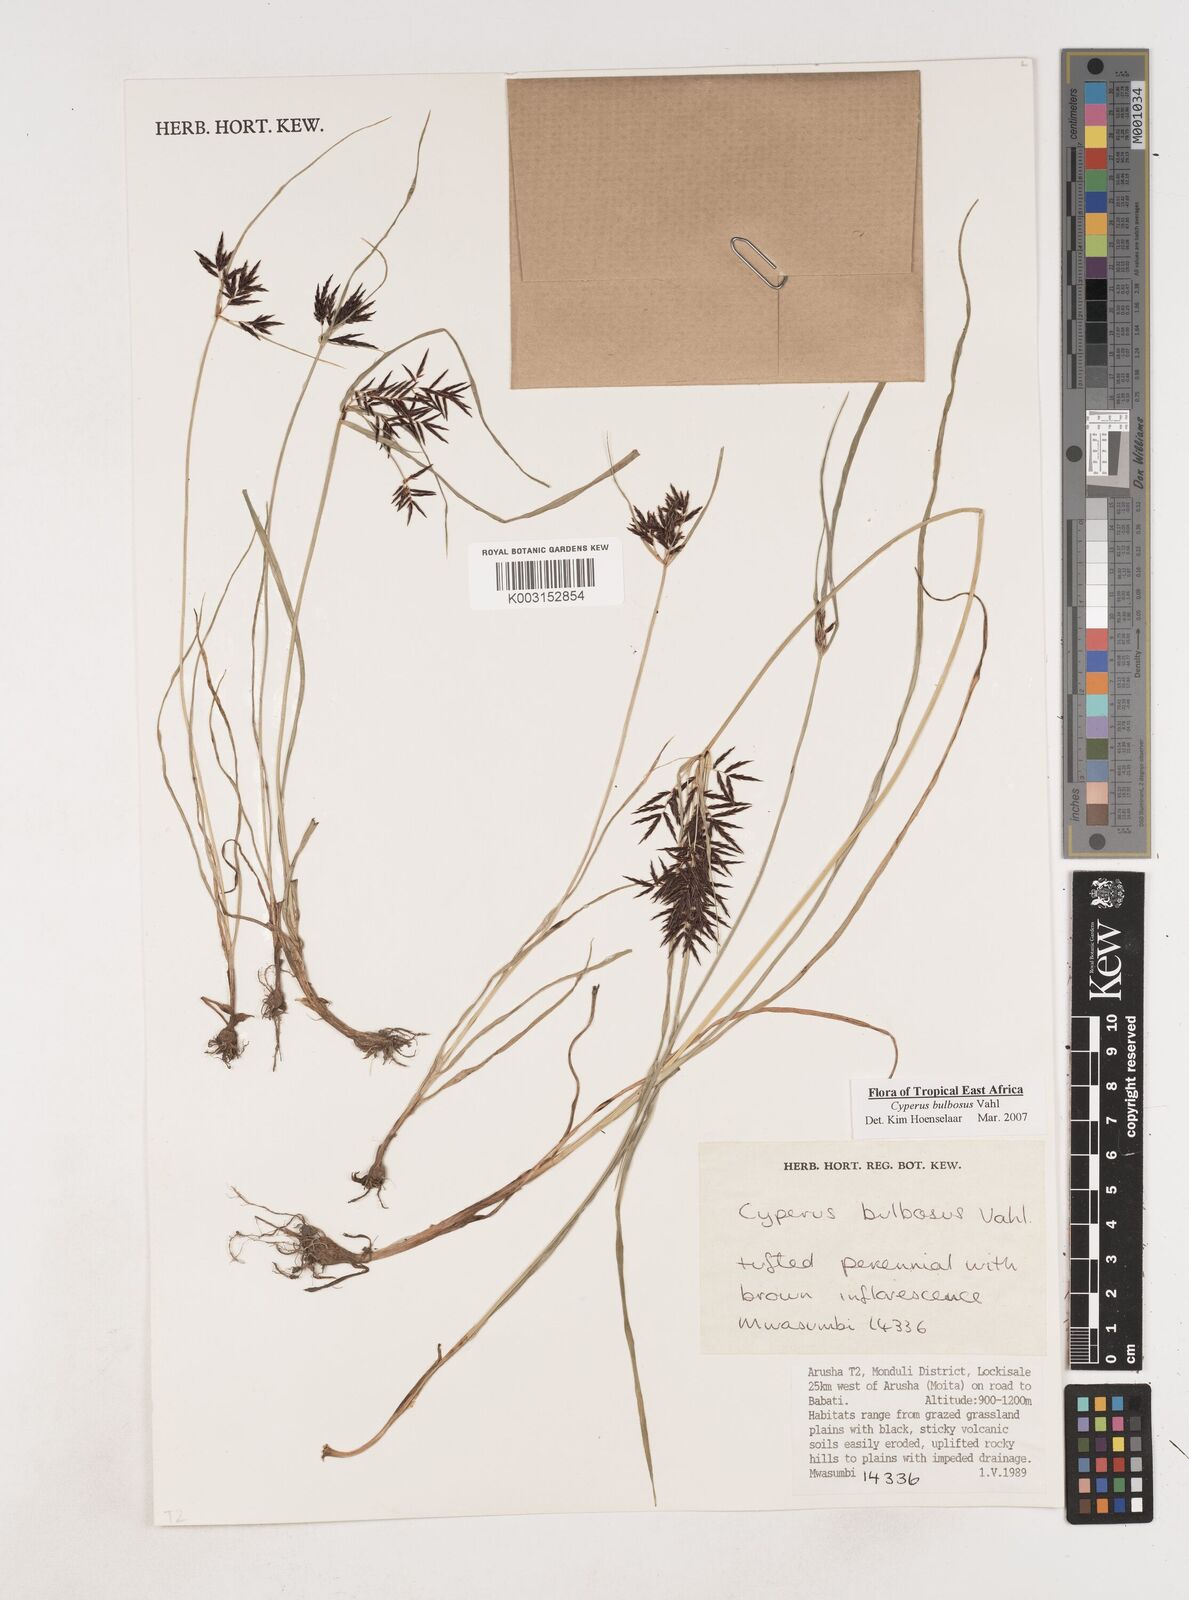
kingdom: Plantae
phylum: Tracheophyta
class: Liliopsida
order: Poales
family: Cyperaceae
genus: Cyperus
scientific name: Cyperus bulbosus
